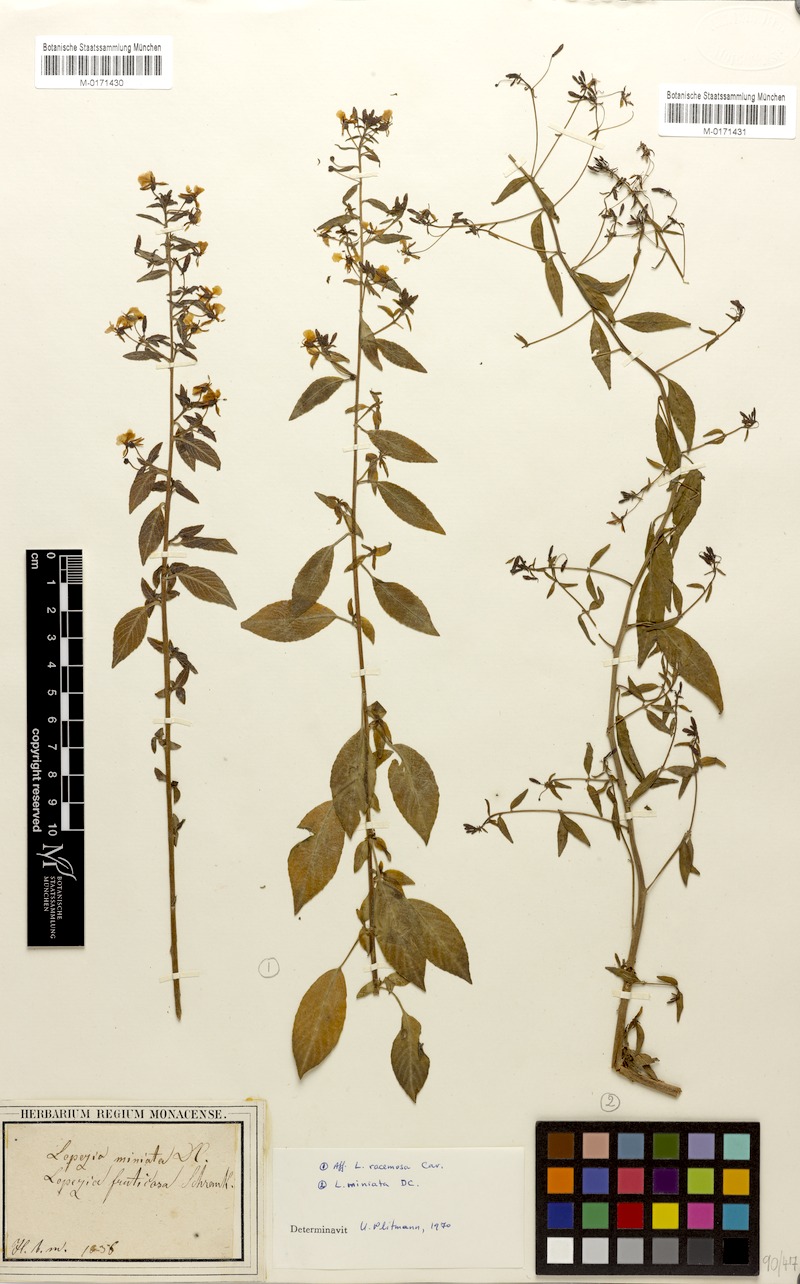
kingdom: Plantae
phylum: Tracheophyta
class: Magnoliopsida
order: Myrtales
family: Onagraceae
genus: Lopezia
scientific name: Lopezia miniata
